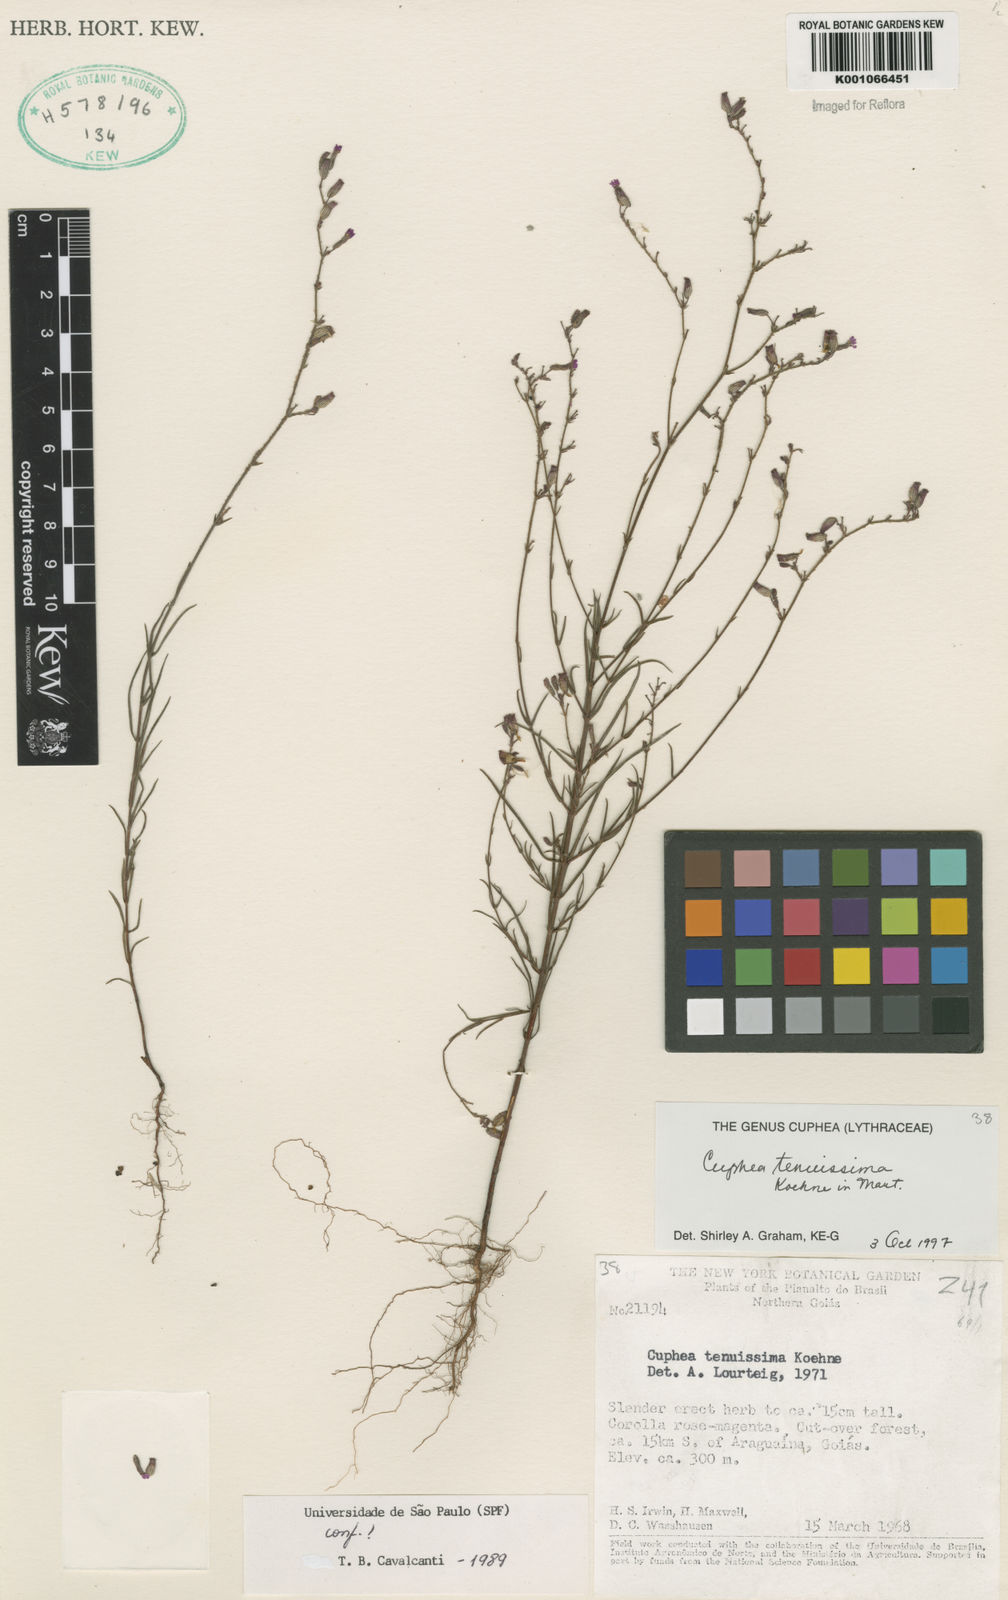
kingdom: Plantae
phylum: Tracheophyta
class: Magnoliopsida
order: Myrtales
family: Lythraceae
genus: Cuphea
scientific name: Cuphea tenuissima
